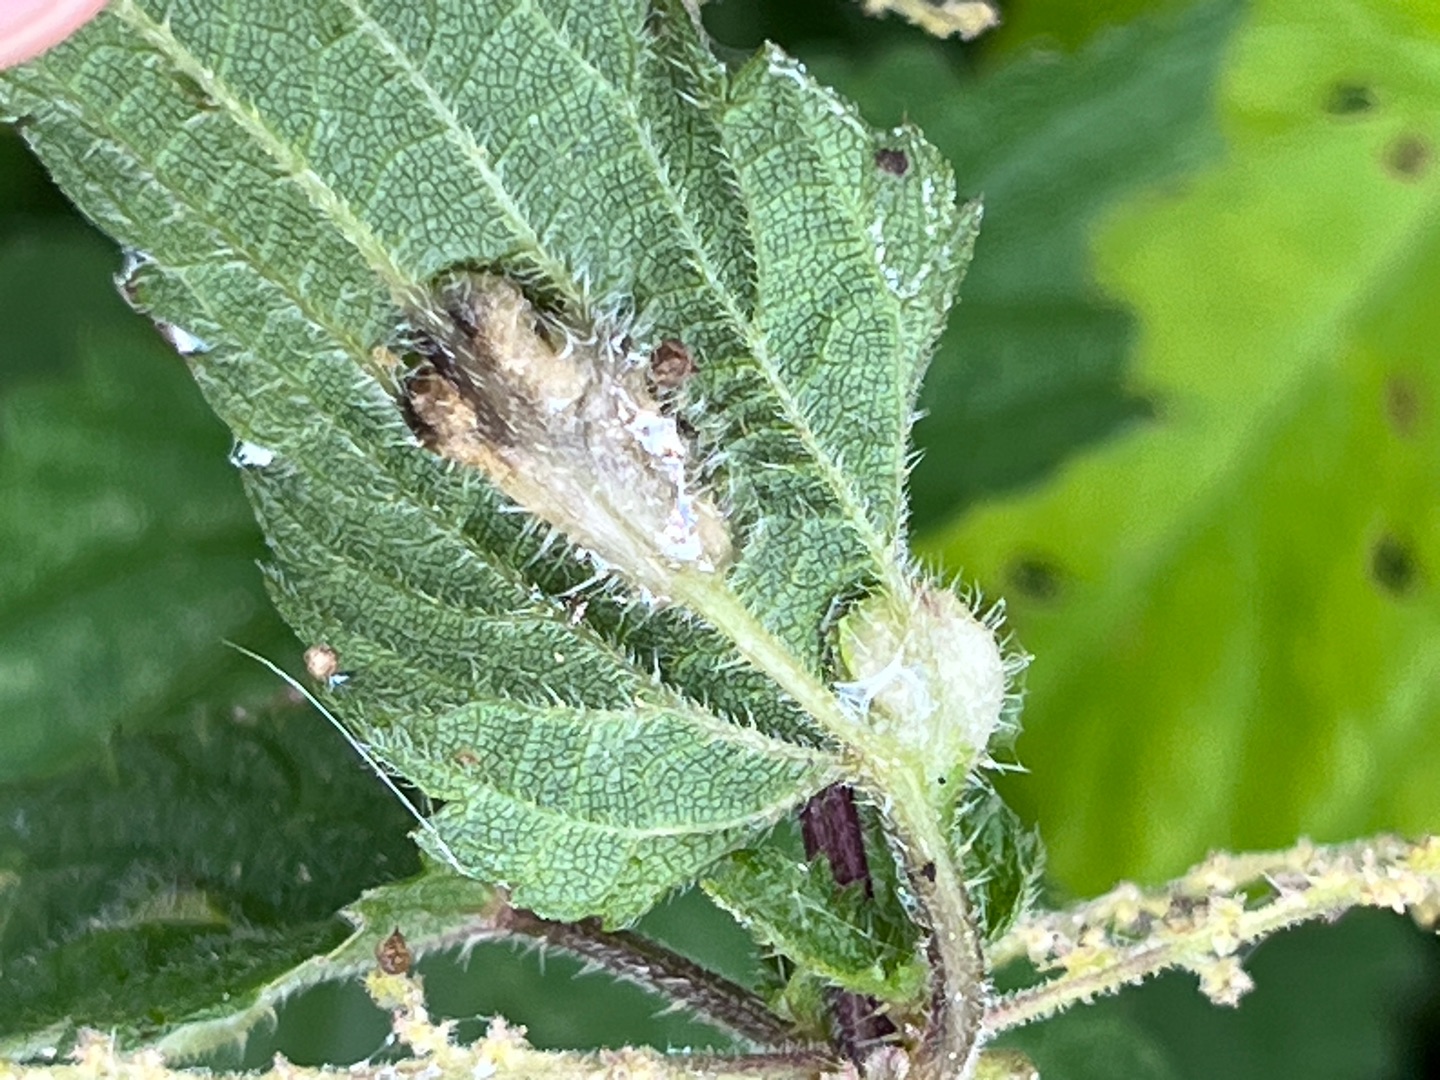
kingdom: Animalia
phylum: Arthropoda
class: Insecta
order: Diptera
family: Cecidomyiidae
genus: Dasineura
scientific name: Dasineura urticae
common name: Nældepunggalmyg
